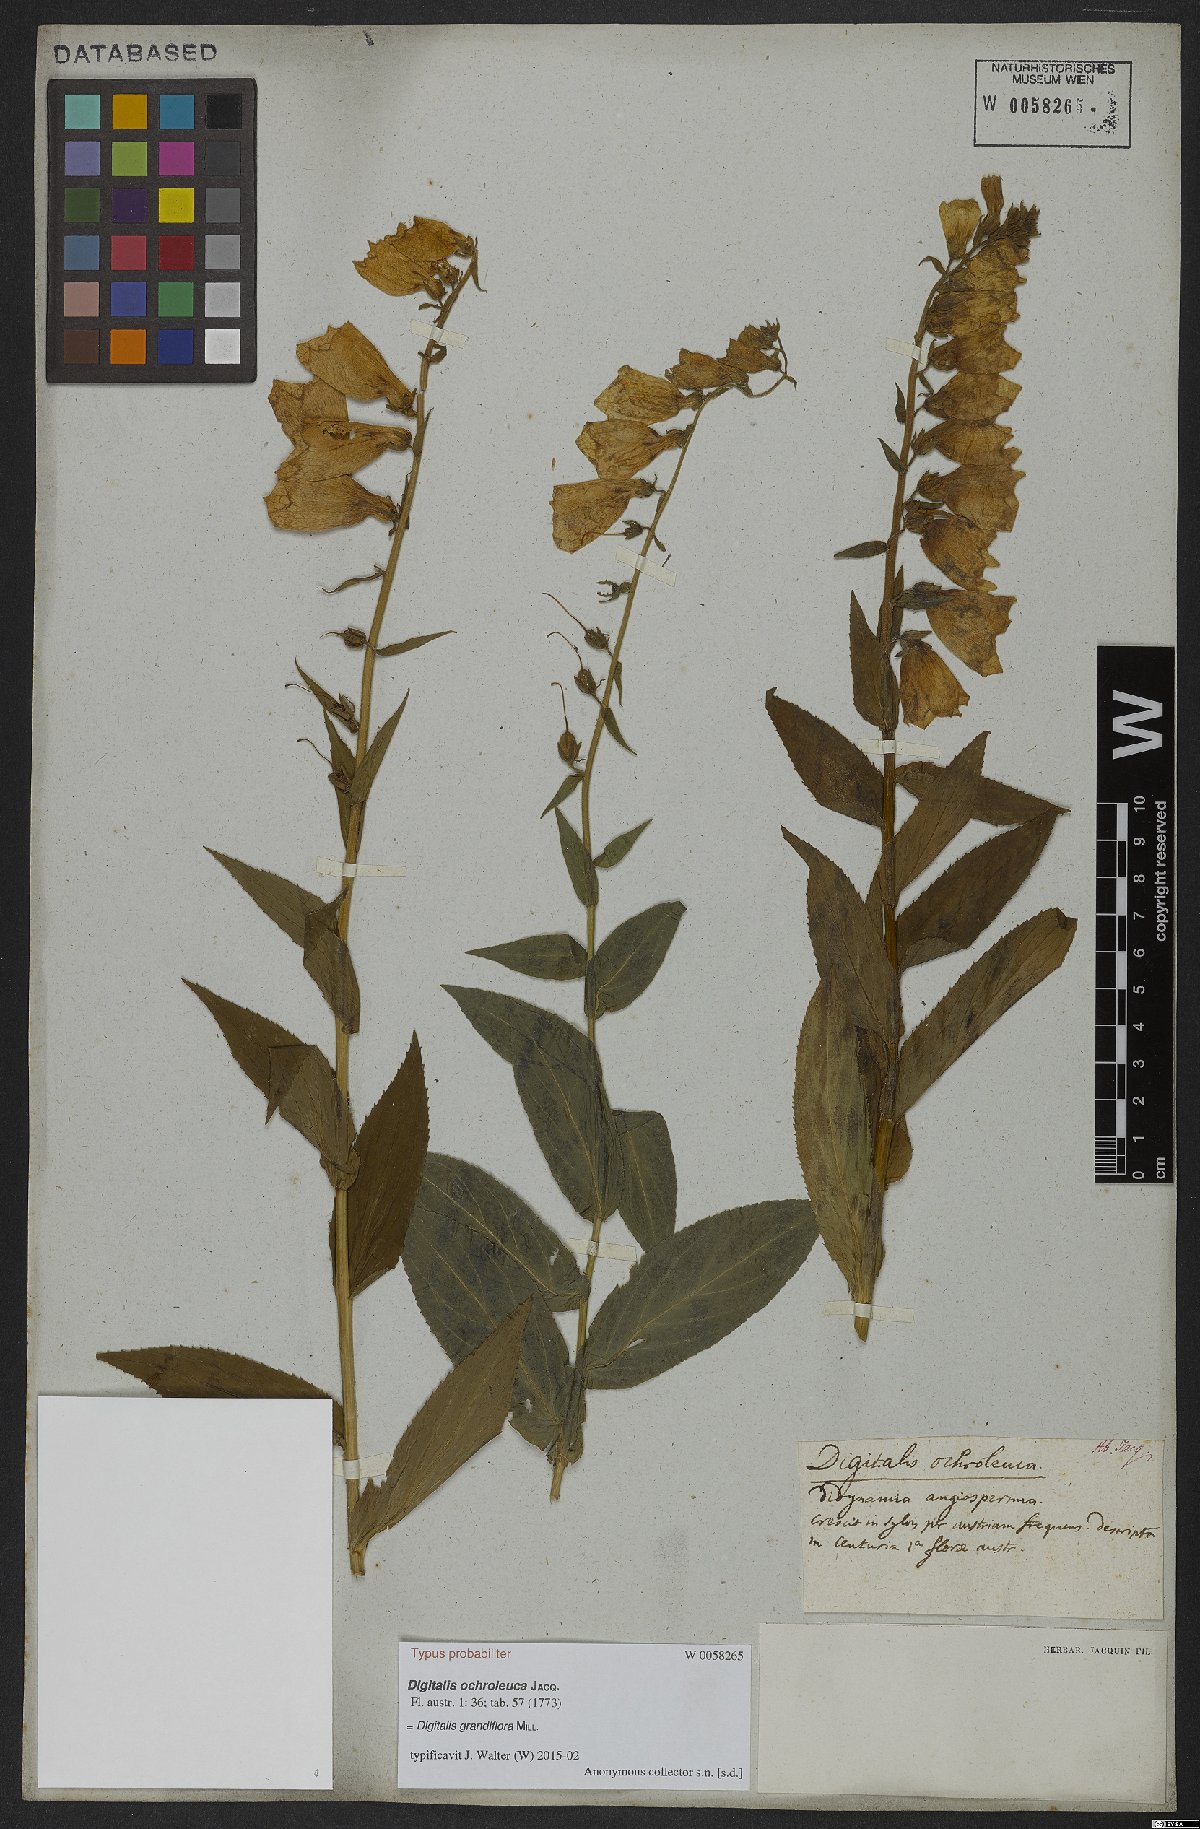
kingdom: Plantae
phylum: Tracheophyta
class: Magnoliopsida
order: Lamiales
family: Plantaginaceae
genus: Digitalis
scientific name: Digitalis grandiflora
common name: Yellow foxglove
